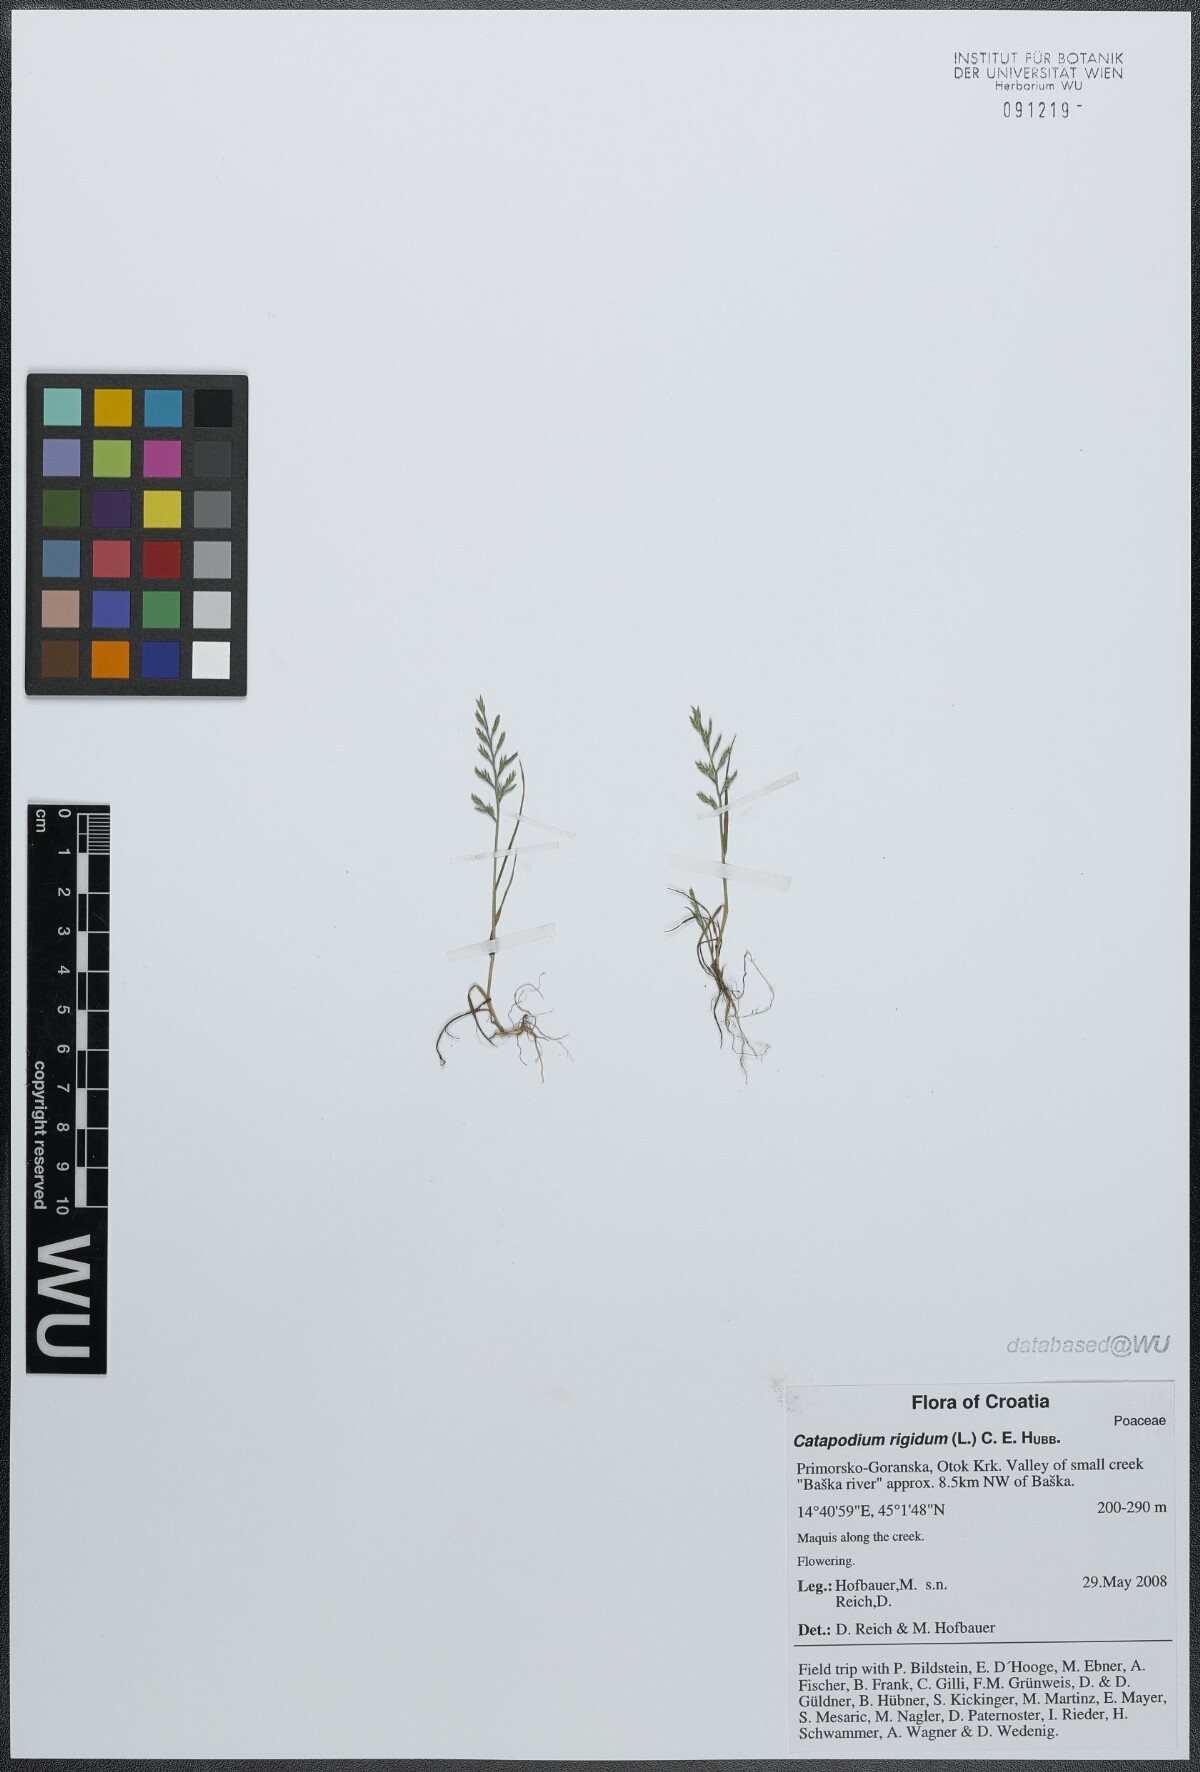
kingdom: Plantae
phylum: Tracheophyta
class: Liliopsida
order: Poales
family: Poaceae
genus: Catapodium
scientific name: Catapodium rigidum
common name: Fern-grass
